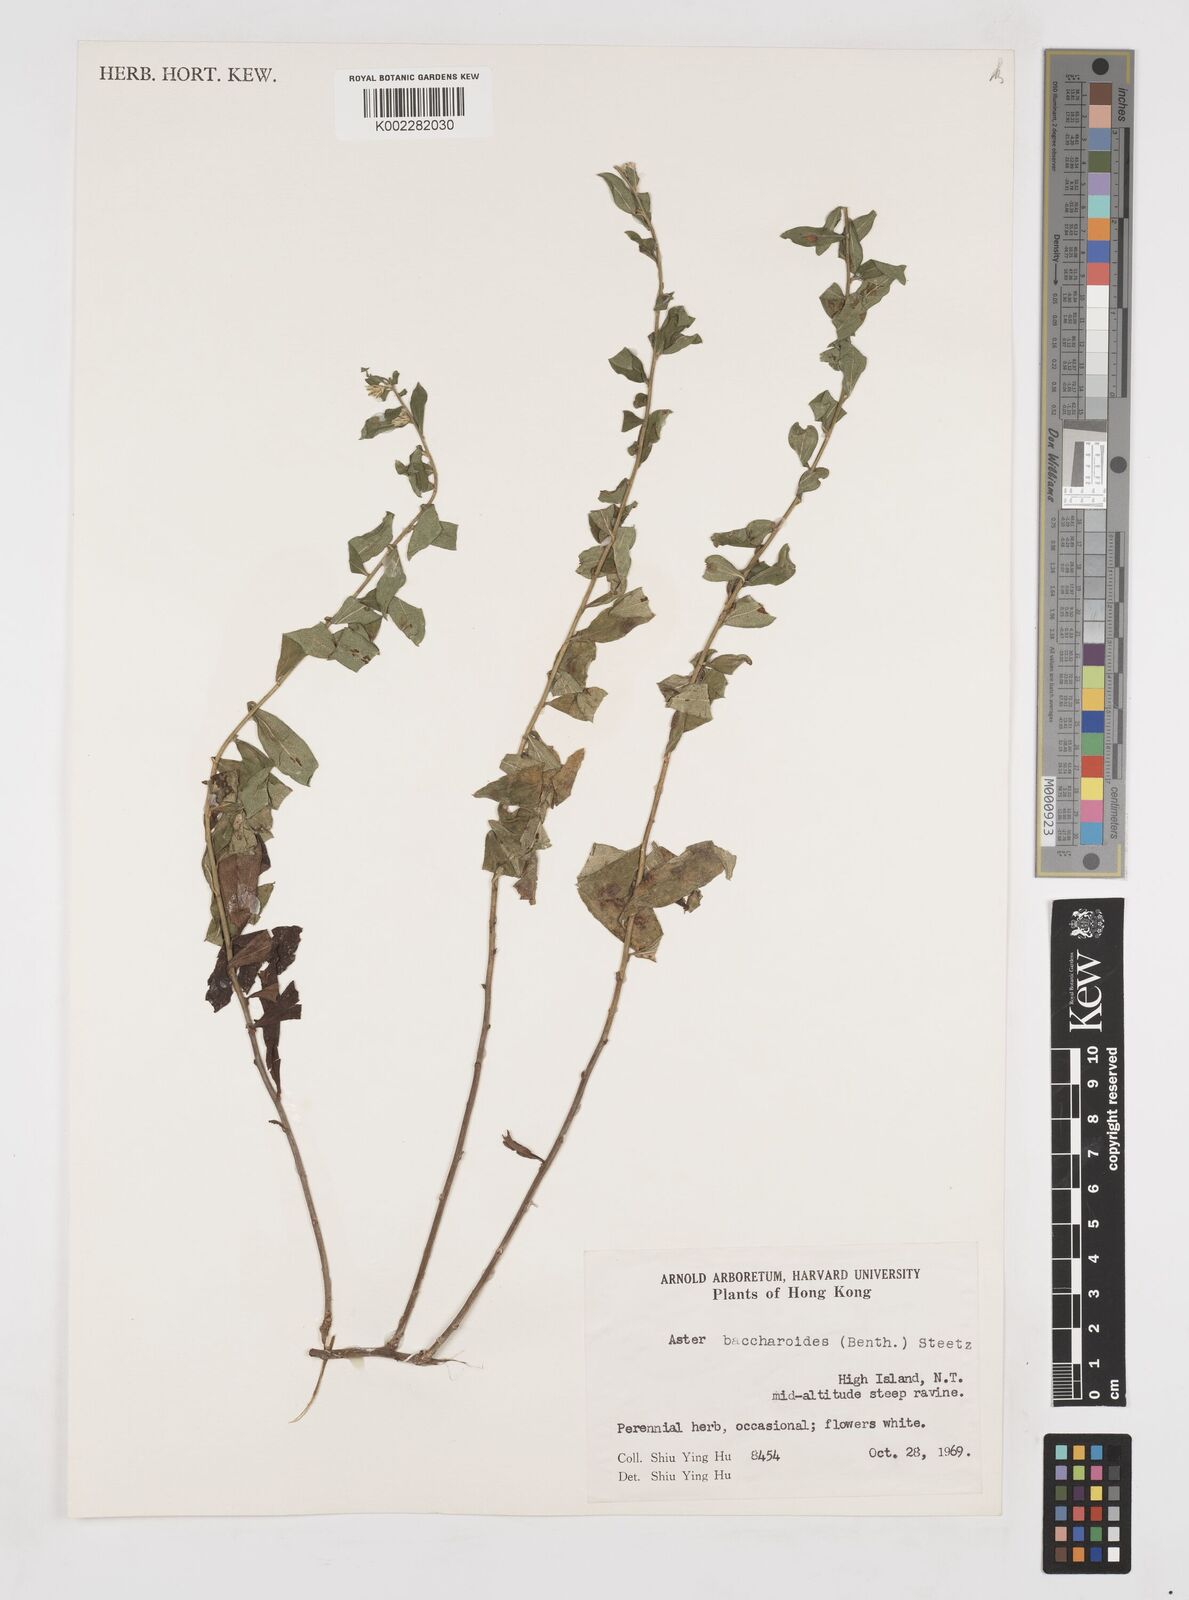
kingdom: Plantae
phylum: Tracheophyta
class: Magnoliopsida
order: Asterales
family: Asteraceae
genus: Aster
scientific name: Aster baccharoides
